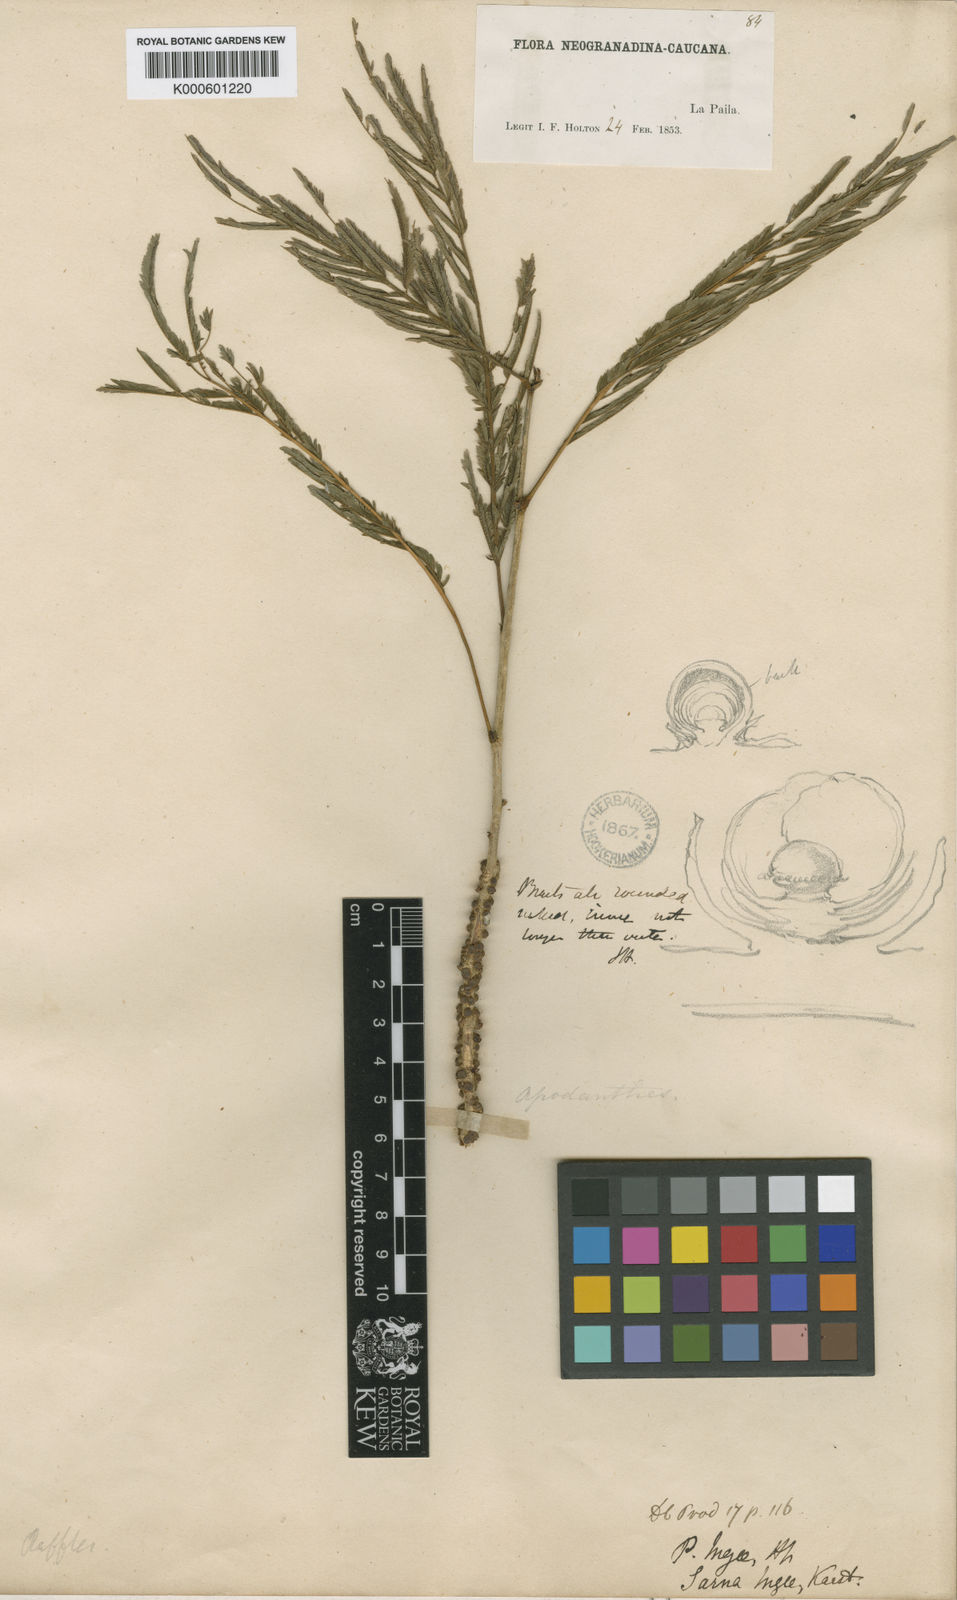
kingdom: Plantae
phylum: Tracheophyta
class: Magnoliopsida
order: Cucurbitales
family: Apodanthaceae
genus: Pilostyles
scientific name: Pilostyles blanchetii
